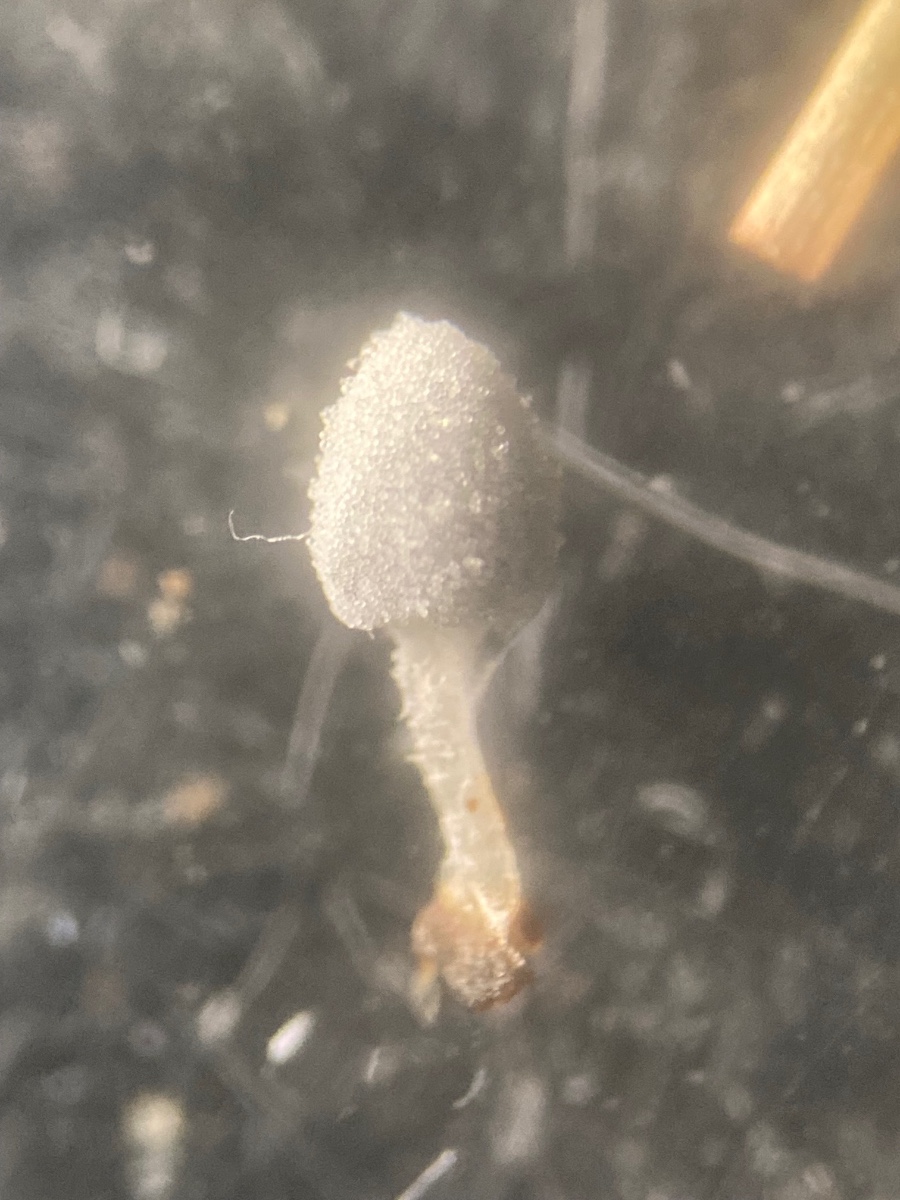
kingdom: Fungi
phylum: Basidiomycota
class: Agaricomycetes
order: Agaricales
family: Psathyrellaceae
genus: Coprinopsis
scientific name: Coprinopsis stercorea
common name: pjusket blækhat
